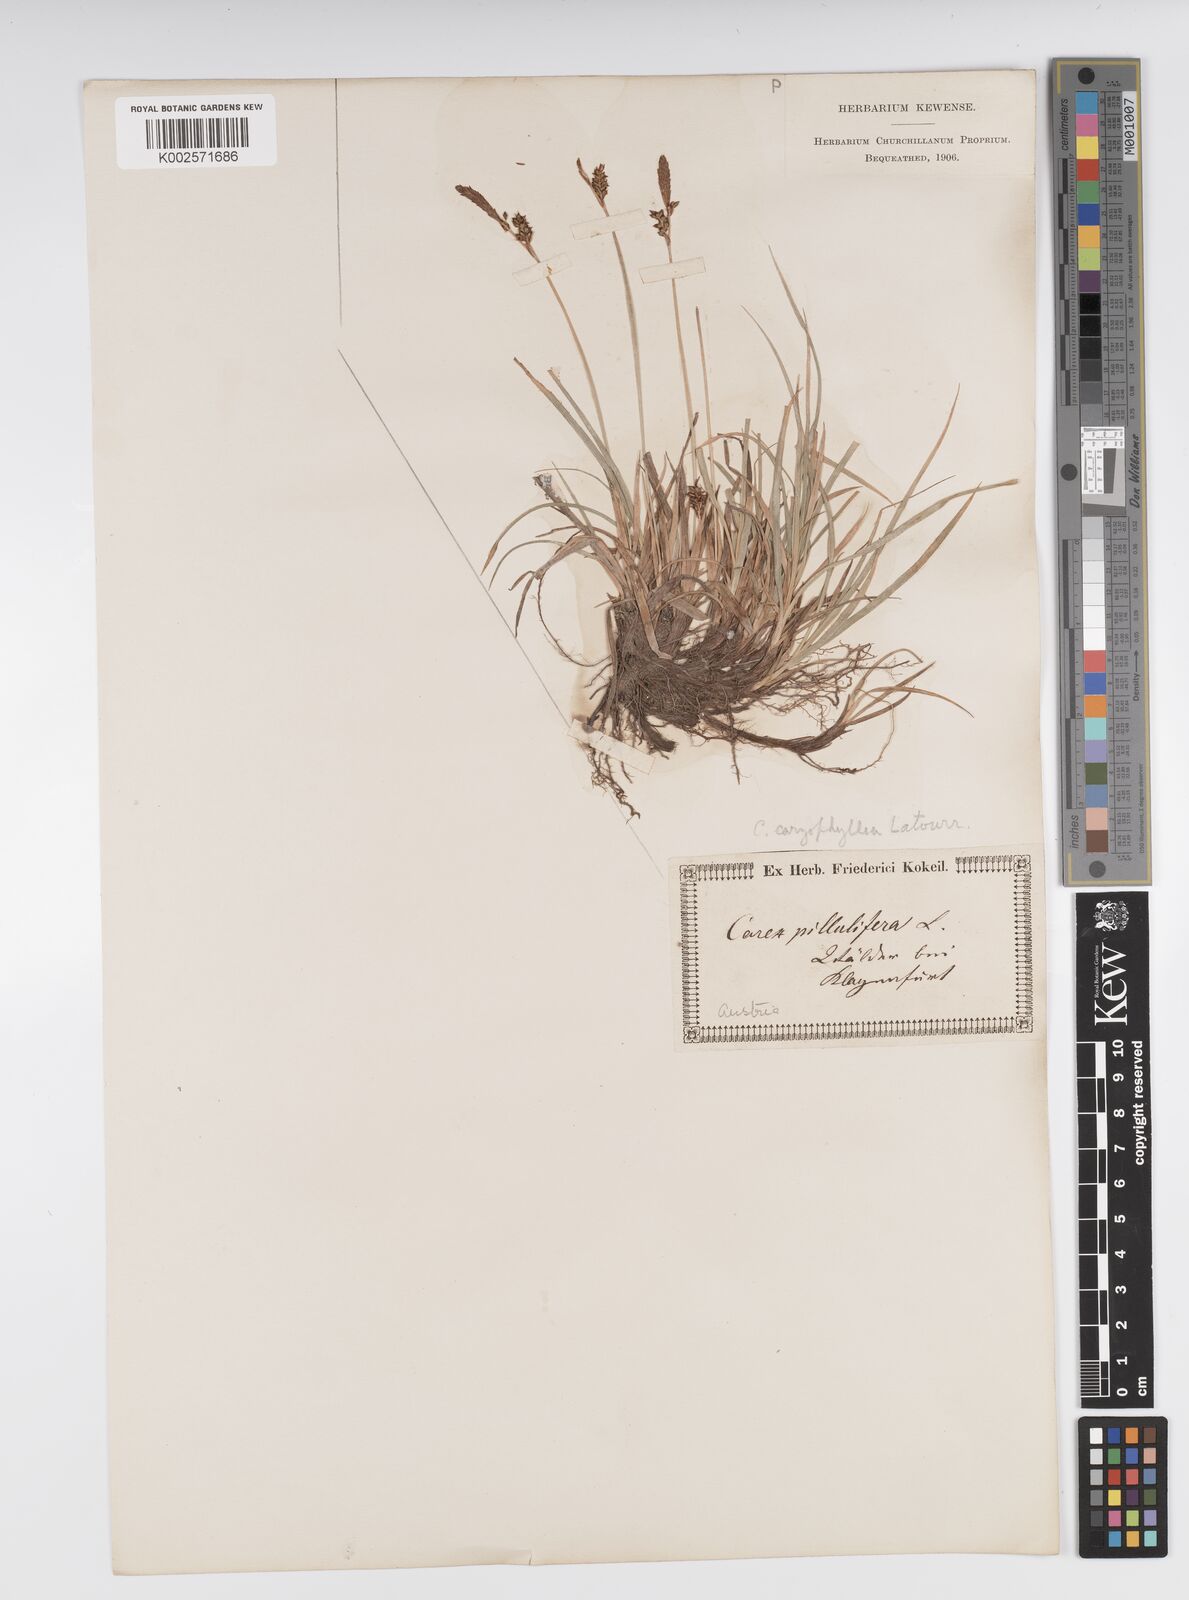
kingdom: Plantae
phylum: Tracheophyta
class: Liliopsida
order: Poales
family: Cyperaceae
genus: Carex
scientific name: Carex caryophyllea
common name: Spring sedge
